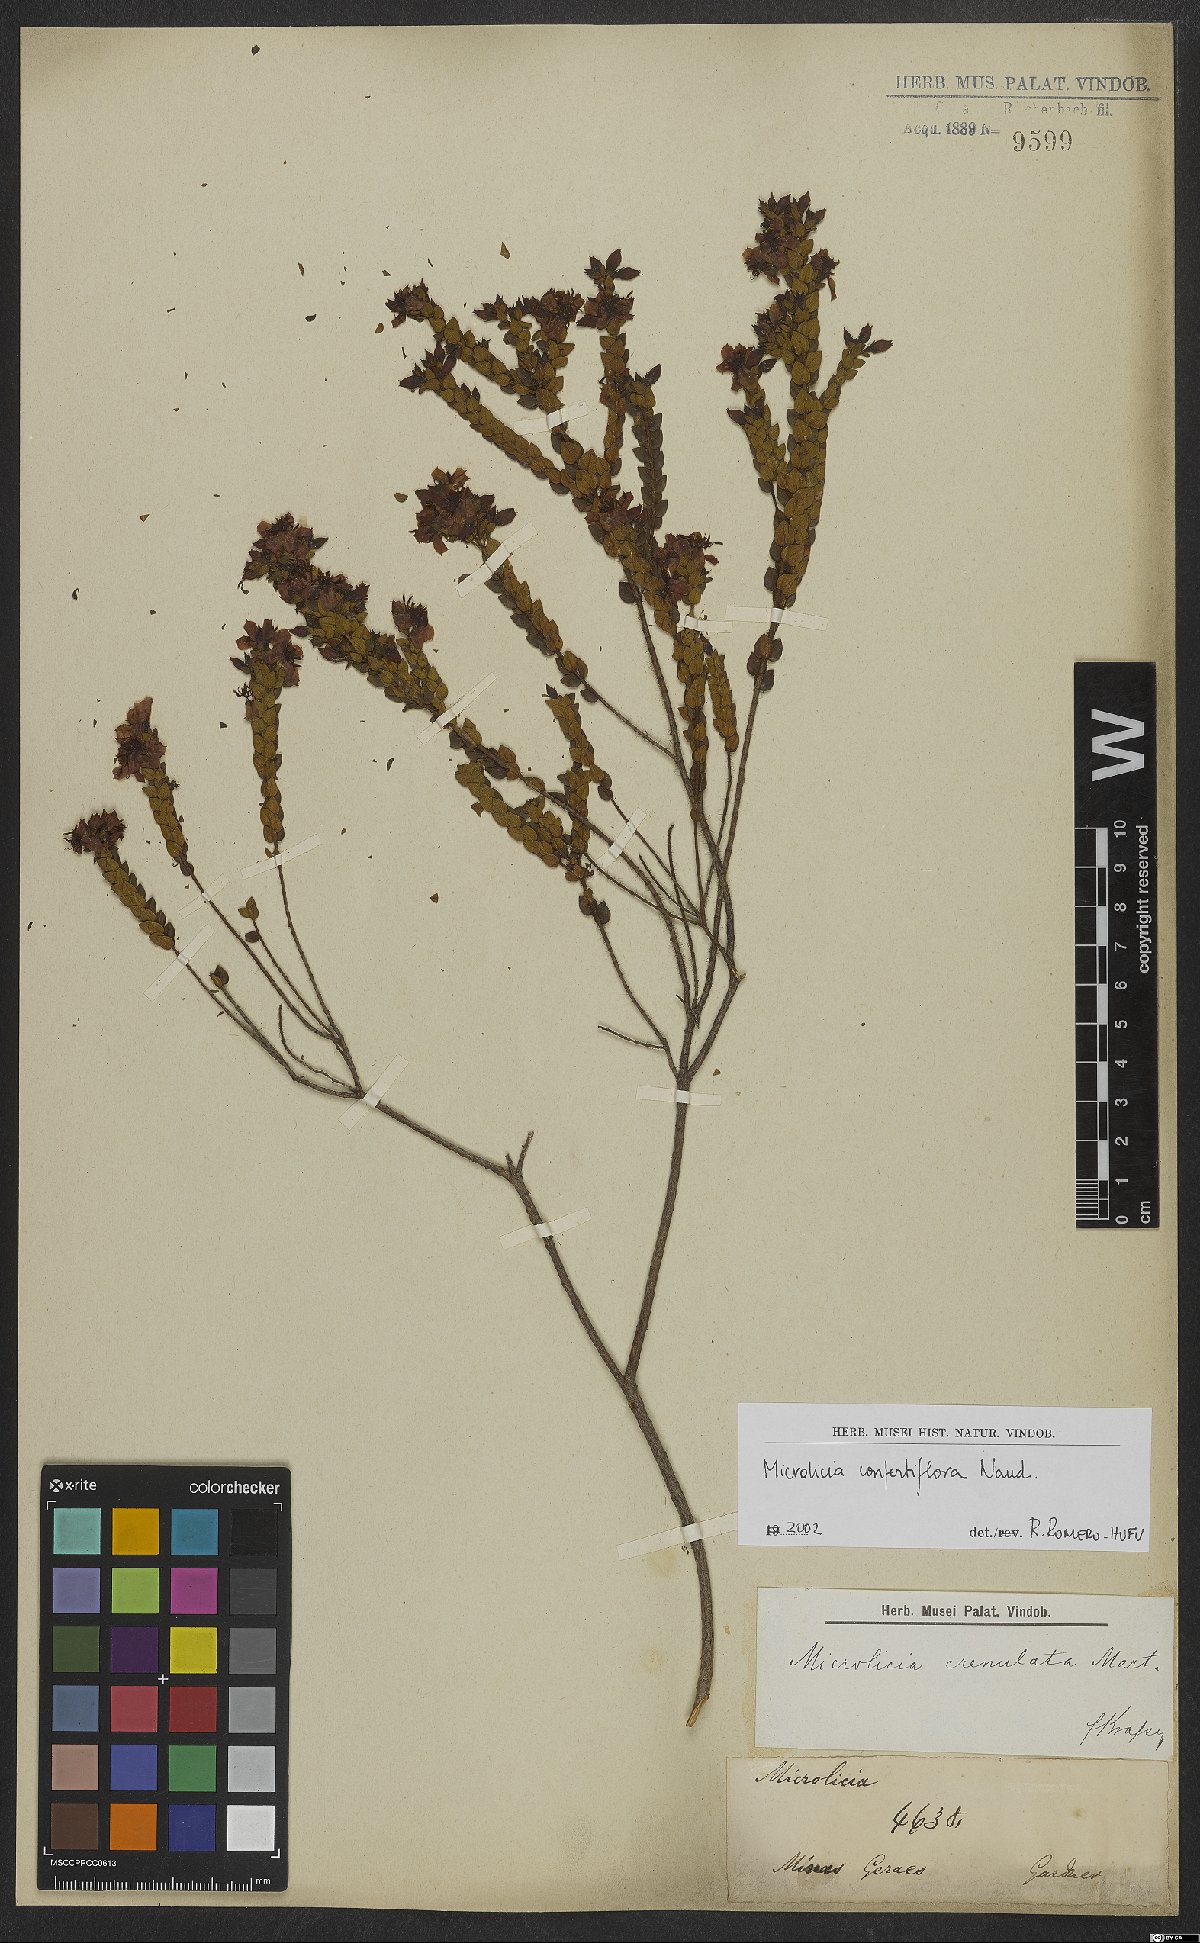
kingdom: Plantae
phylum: Tracheophyta
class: Magnoliopsida
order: Myrtales
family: Melastomataceae
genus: Microlicia
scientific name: Microlicia confertiflora
